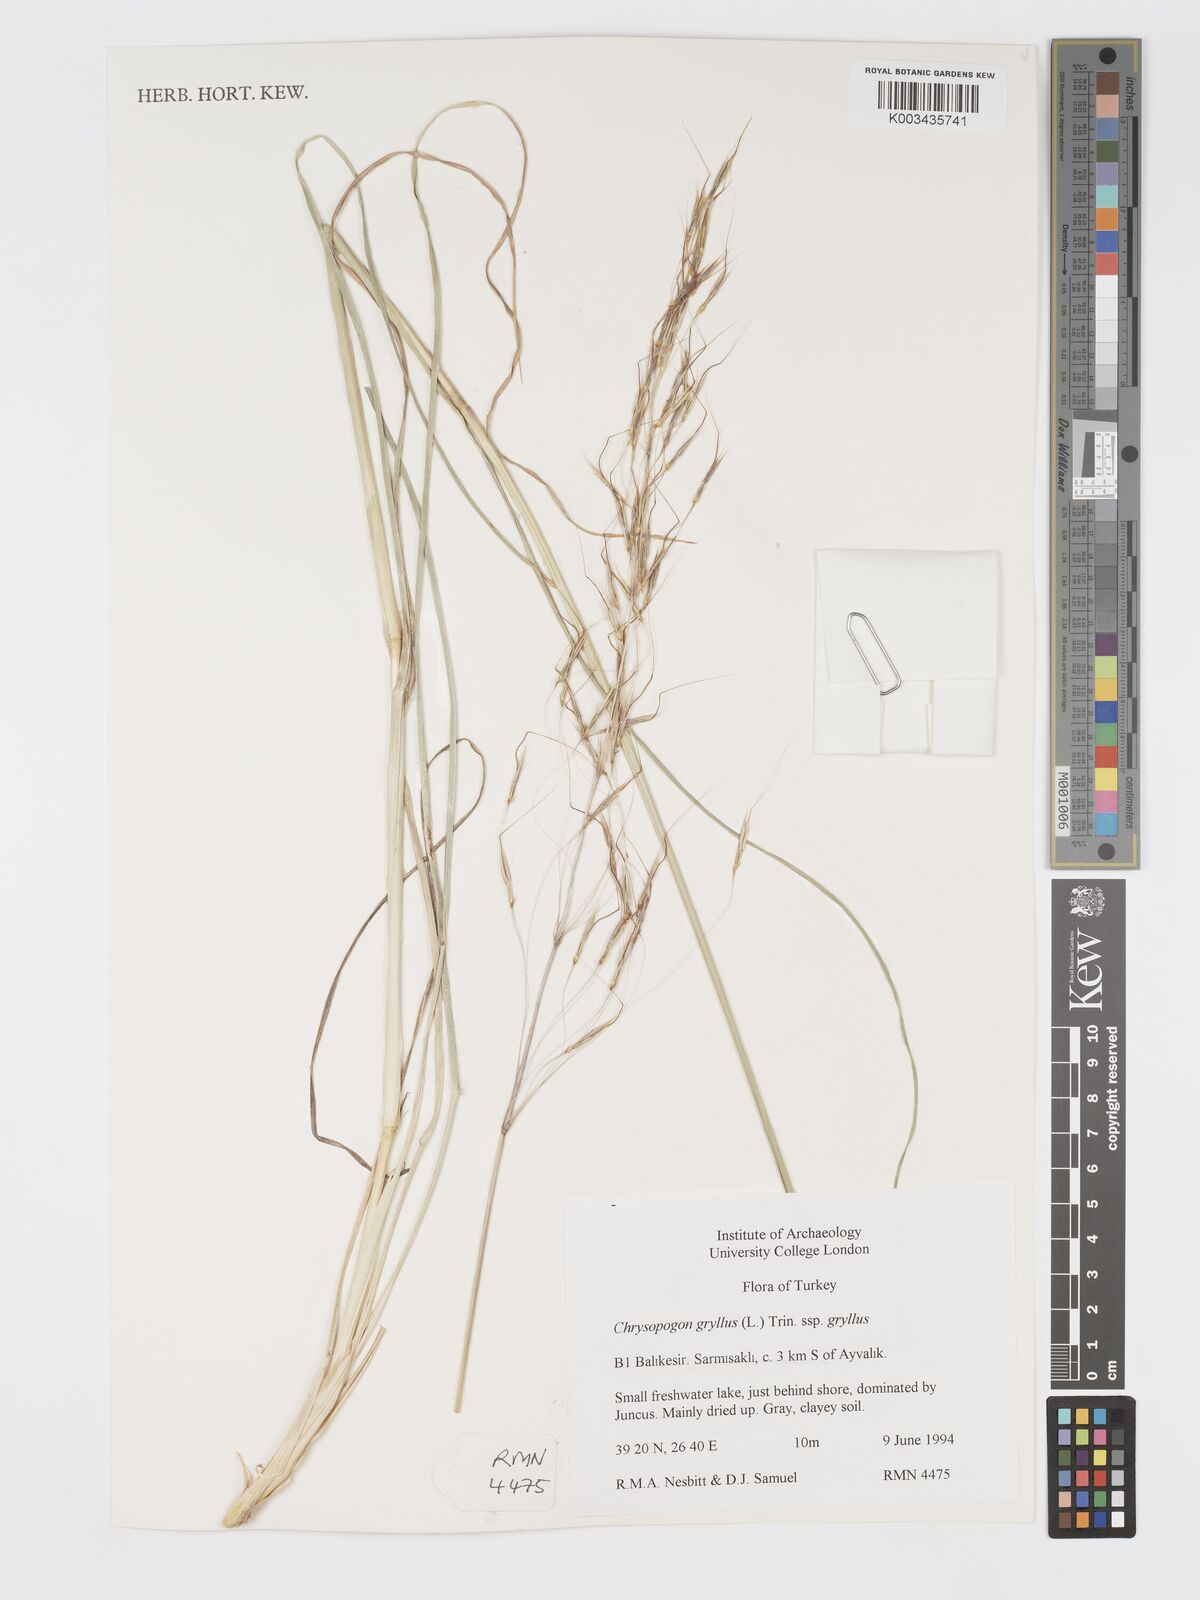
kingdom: Plantae
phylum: Tracheophyta
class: Liliopsida
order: Poales
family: Poaceae
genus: Chrysopogon
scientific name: Chrysopogon gryllus
